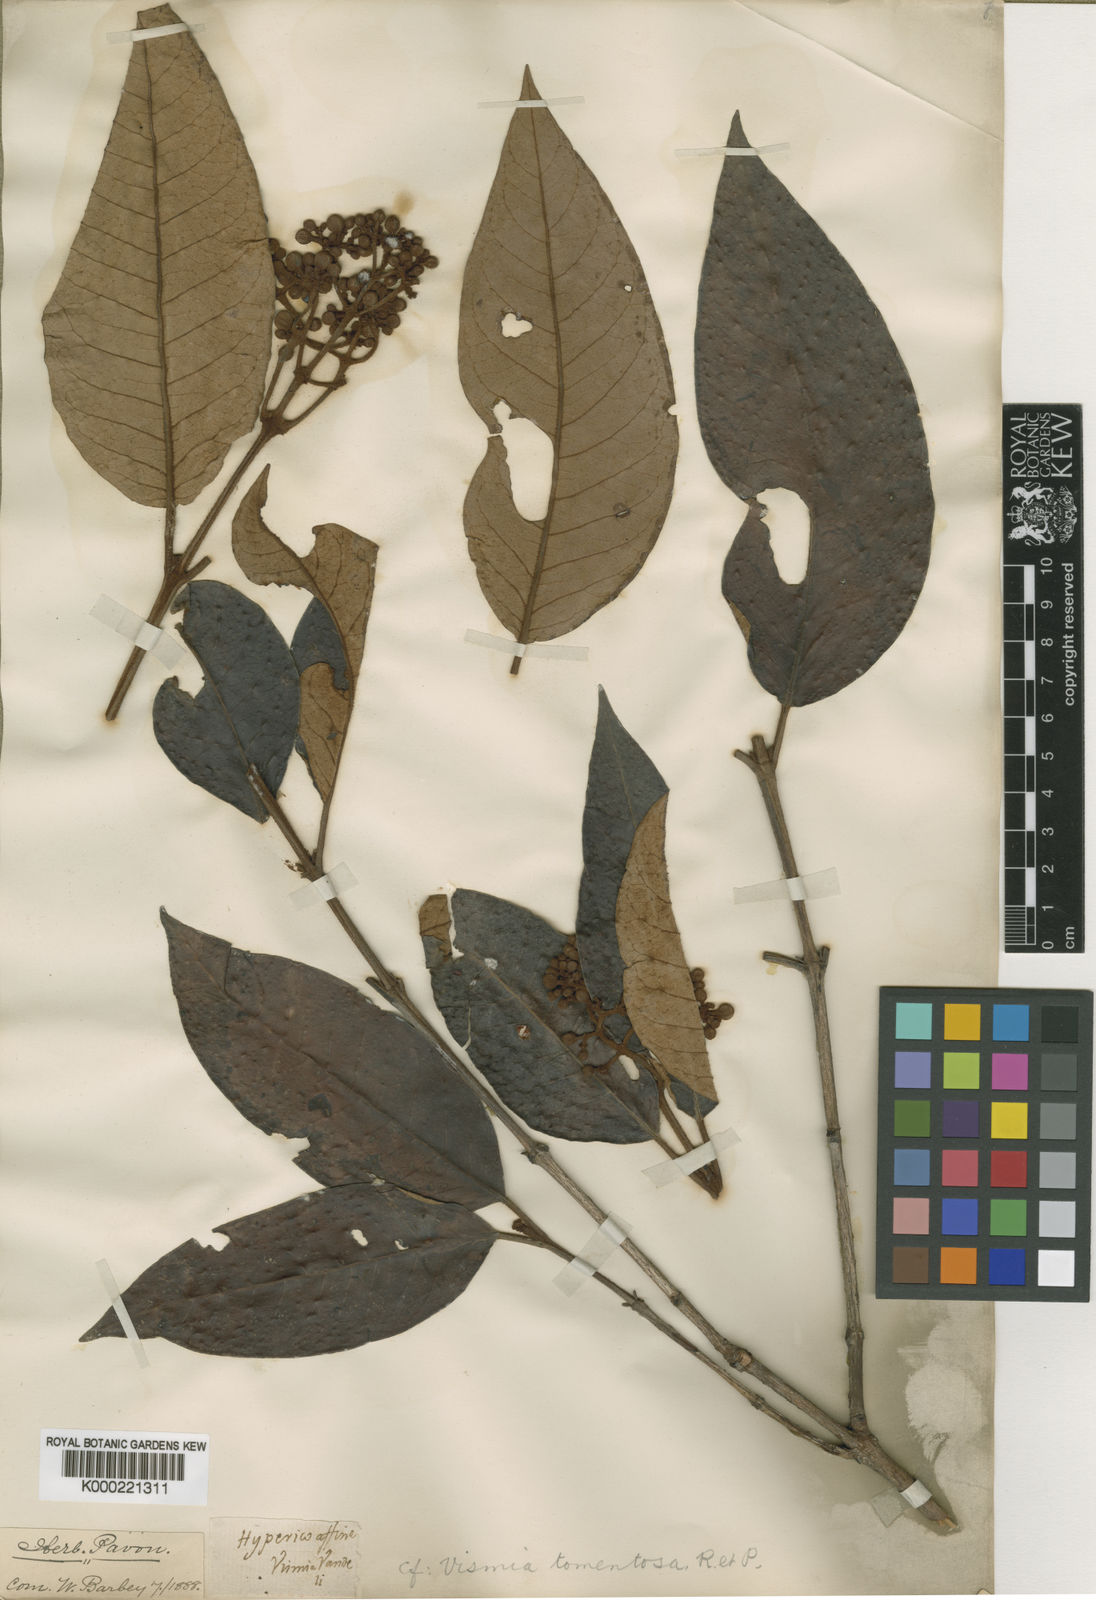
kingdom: Plantae
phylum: Tracheophyta
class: Magnoliopsida
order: Malpighiales
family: Hypericaceae
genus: Vismia
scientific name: Vismia tomentosa
